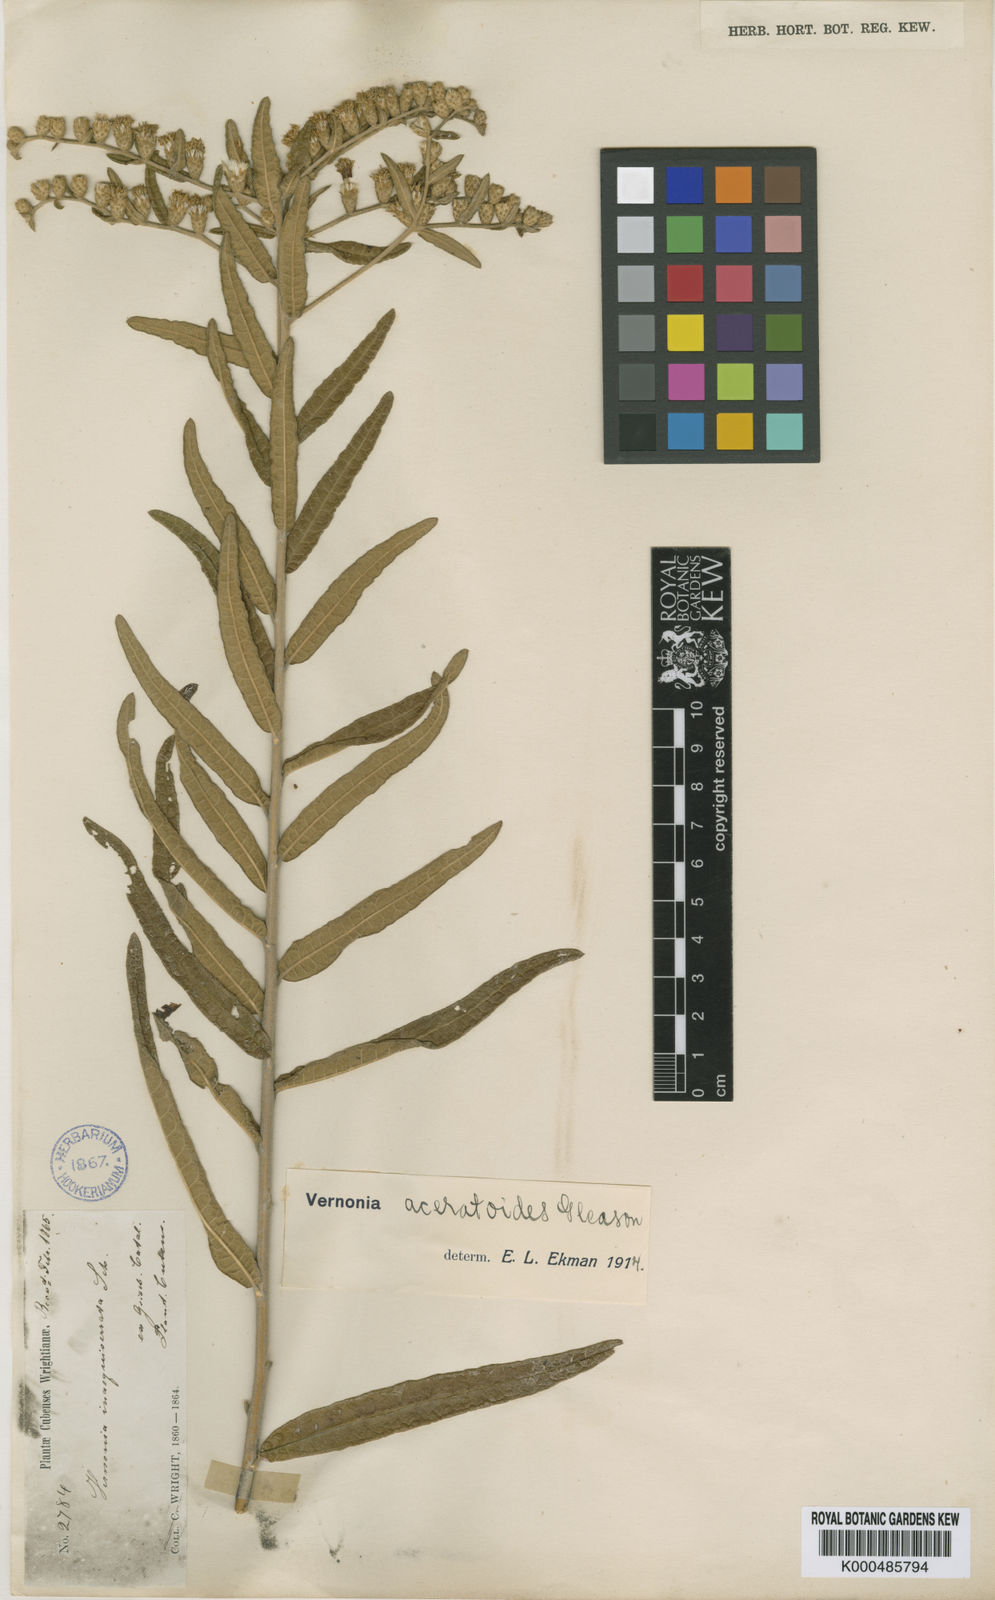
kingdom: Plantae
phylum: Tracheophyta
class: Magnoliopsida
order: Asterales
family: Asteraceae
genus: Lepidaploa
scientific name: Lepidaploa sagrana
